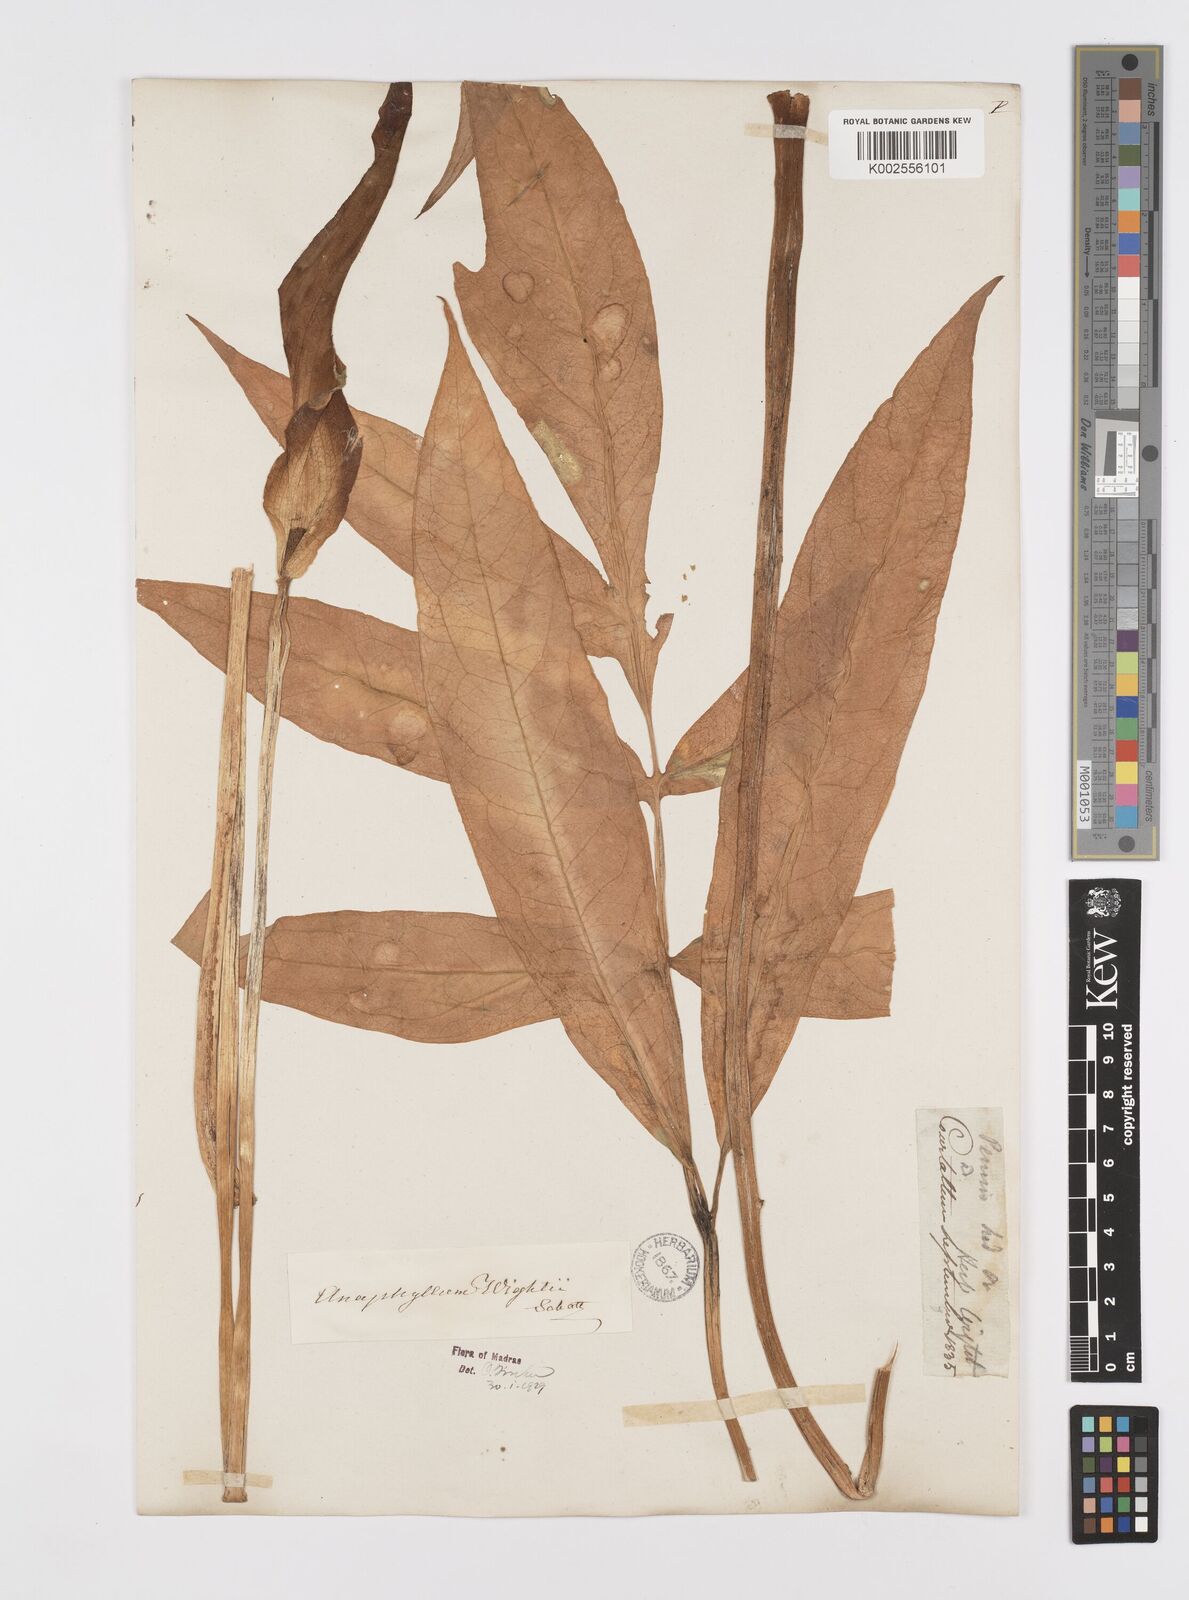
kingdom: Plantae
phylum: Tracheophyta
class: Liliopsida
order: Alismatales
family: Araceae
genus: Anaphyllum
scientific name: Anaphyllum wightii
